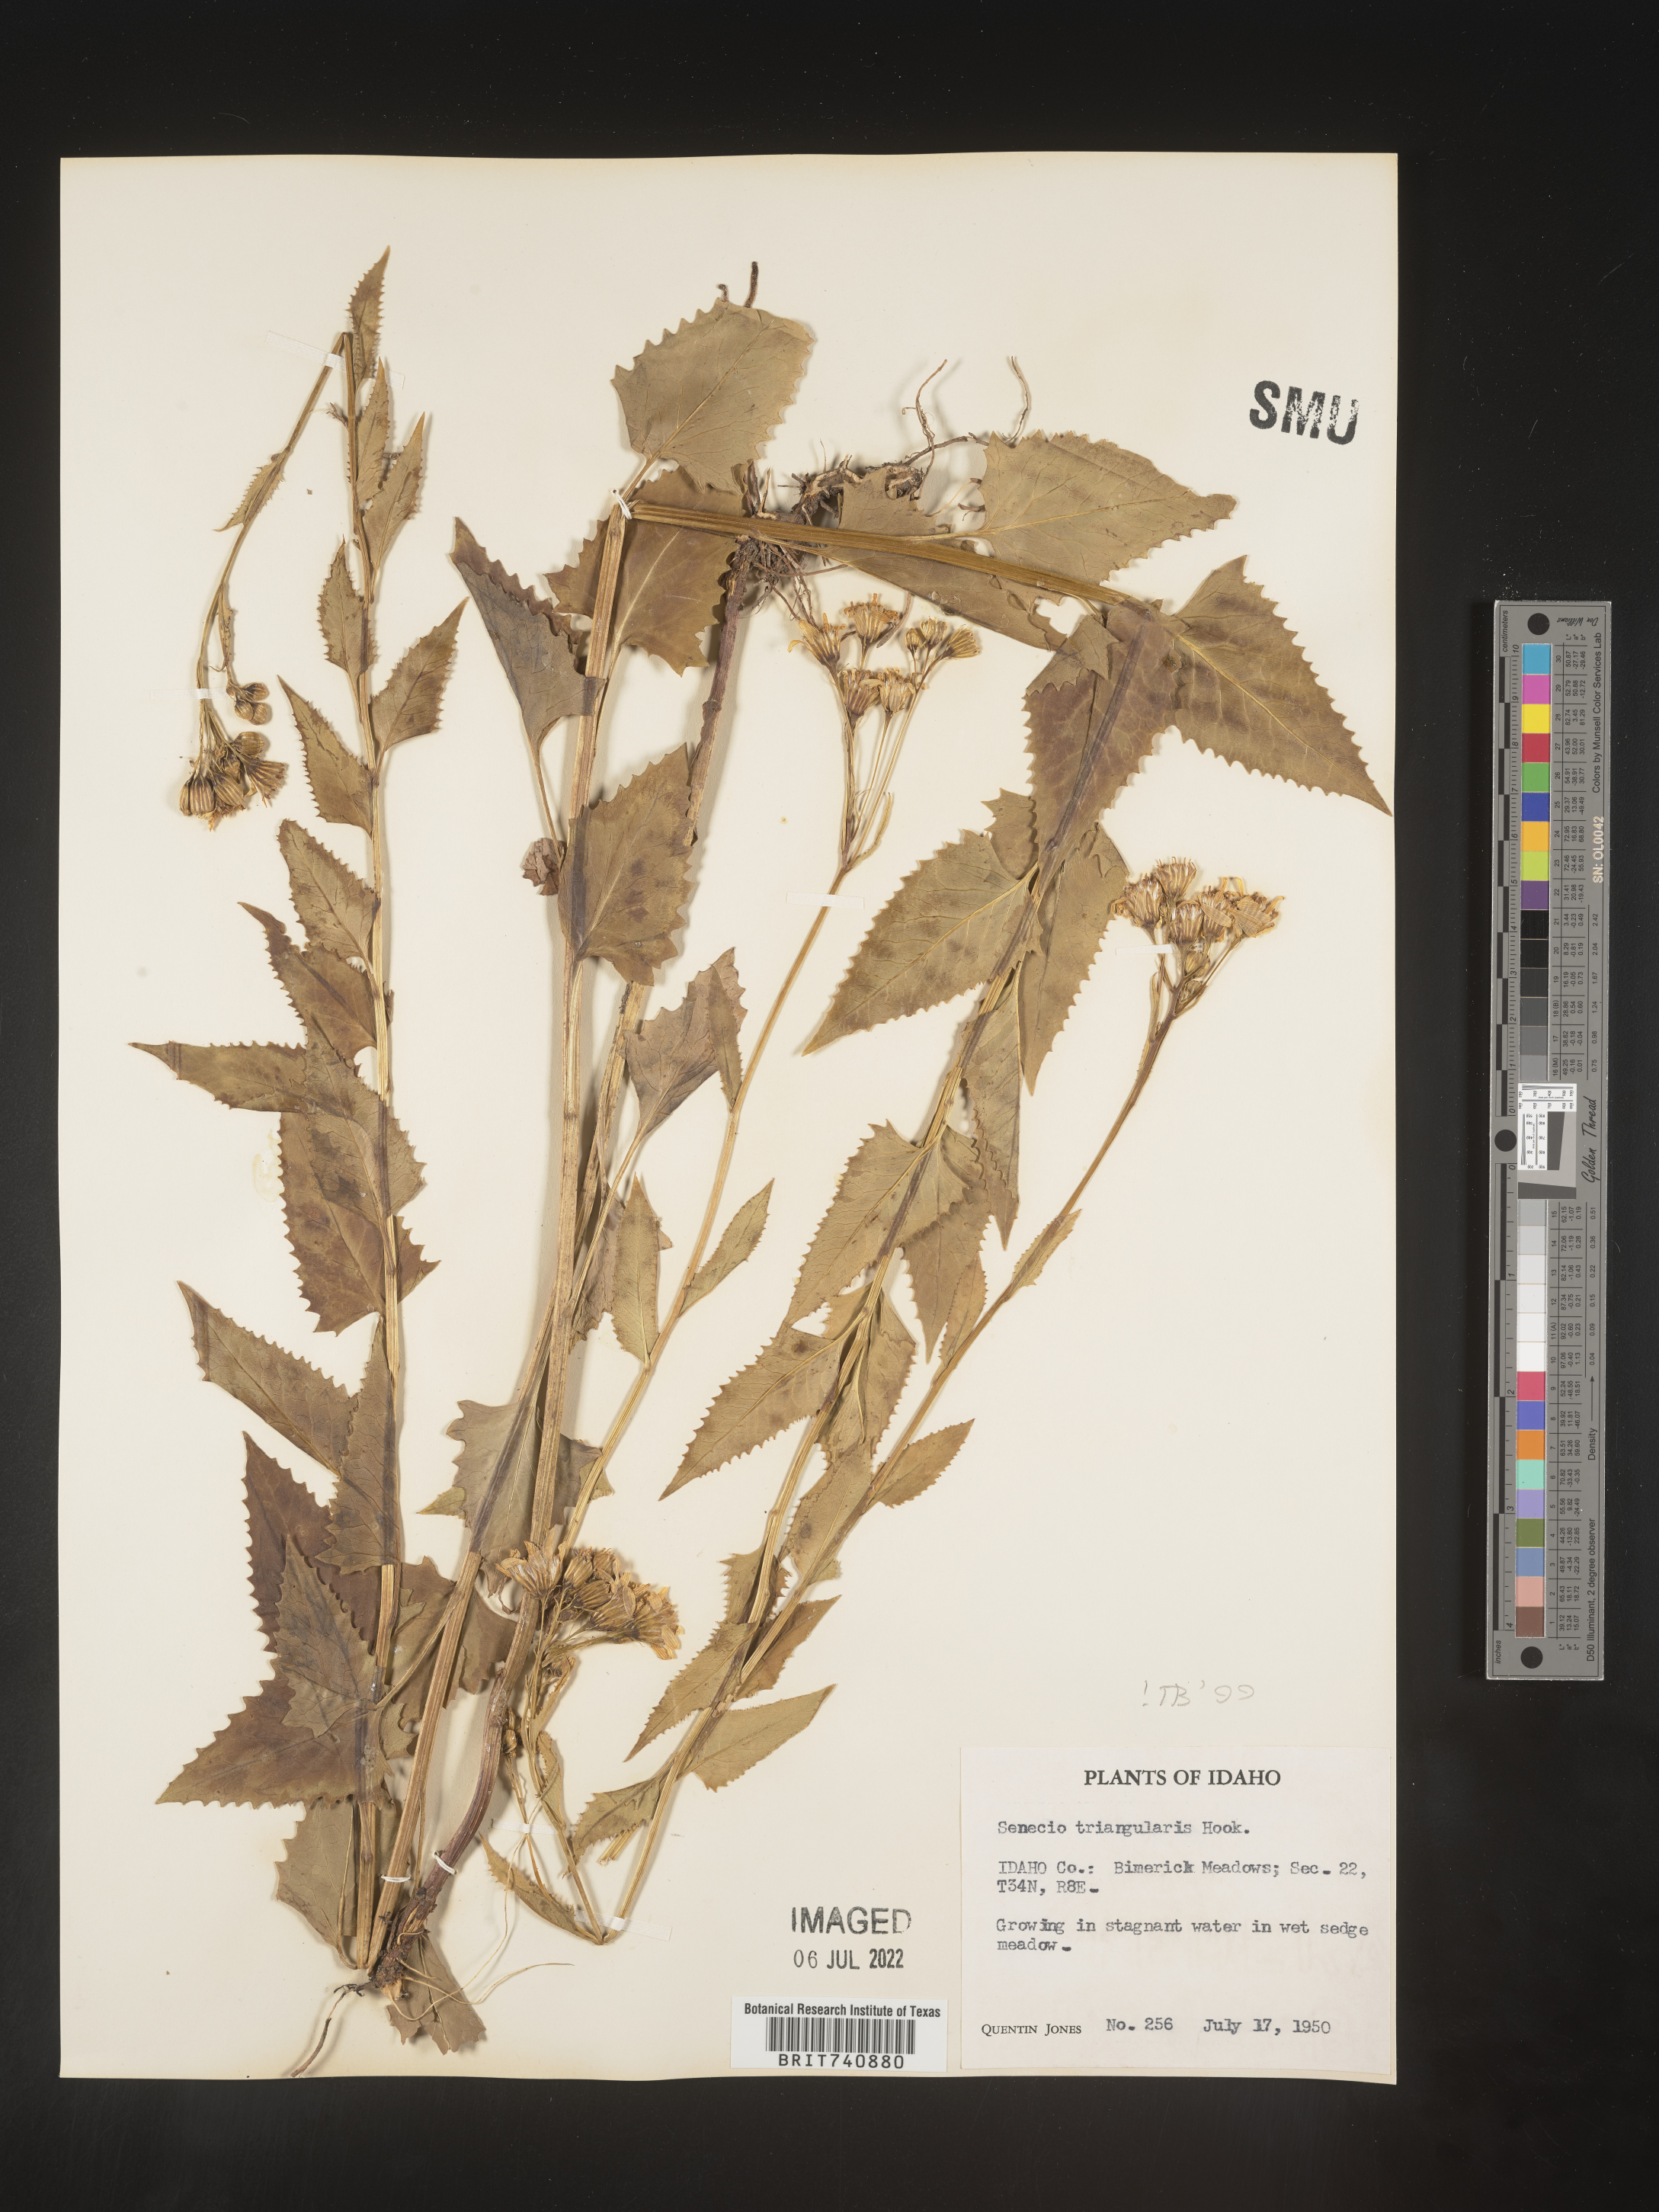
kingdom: Plantae
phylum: Tracheophyta
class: Magnoliopsida
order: Asterales
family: Asteraceae
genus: Senecio
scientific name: Senecio triangularis
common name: Arrowleaf butterweed
